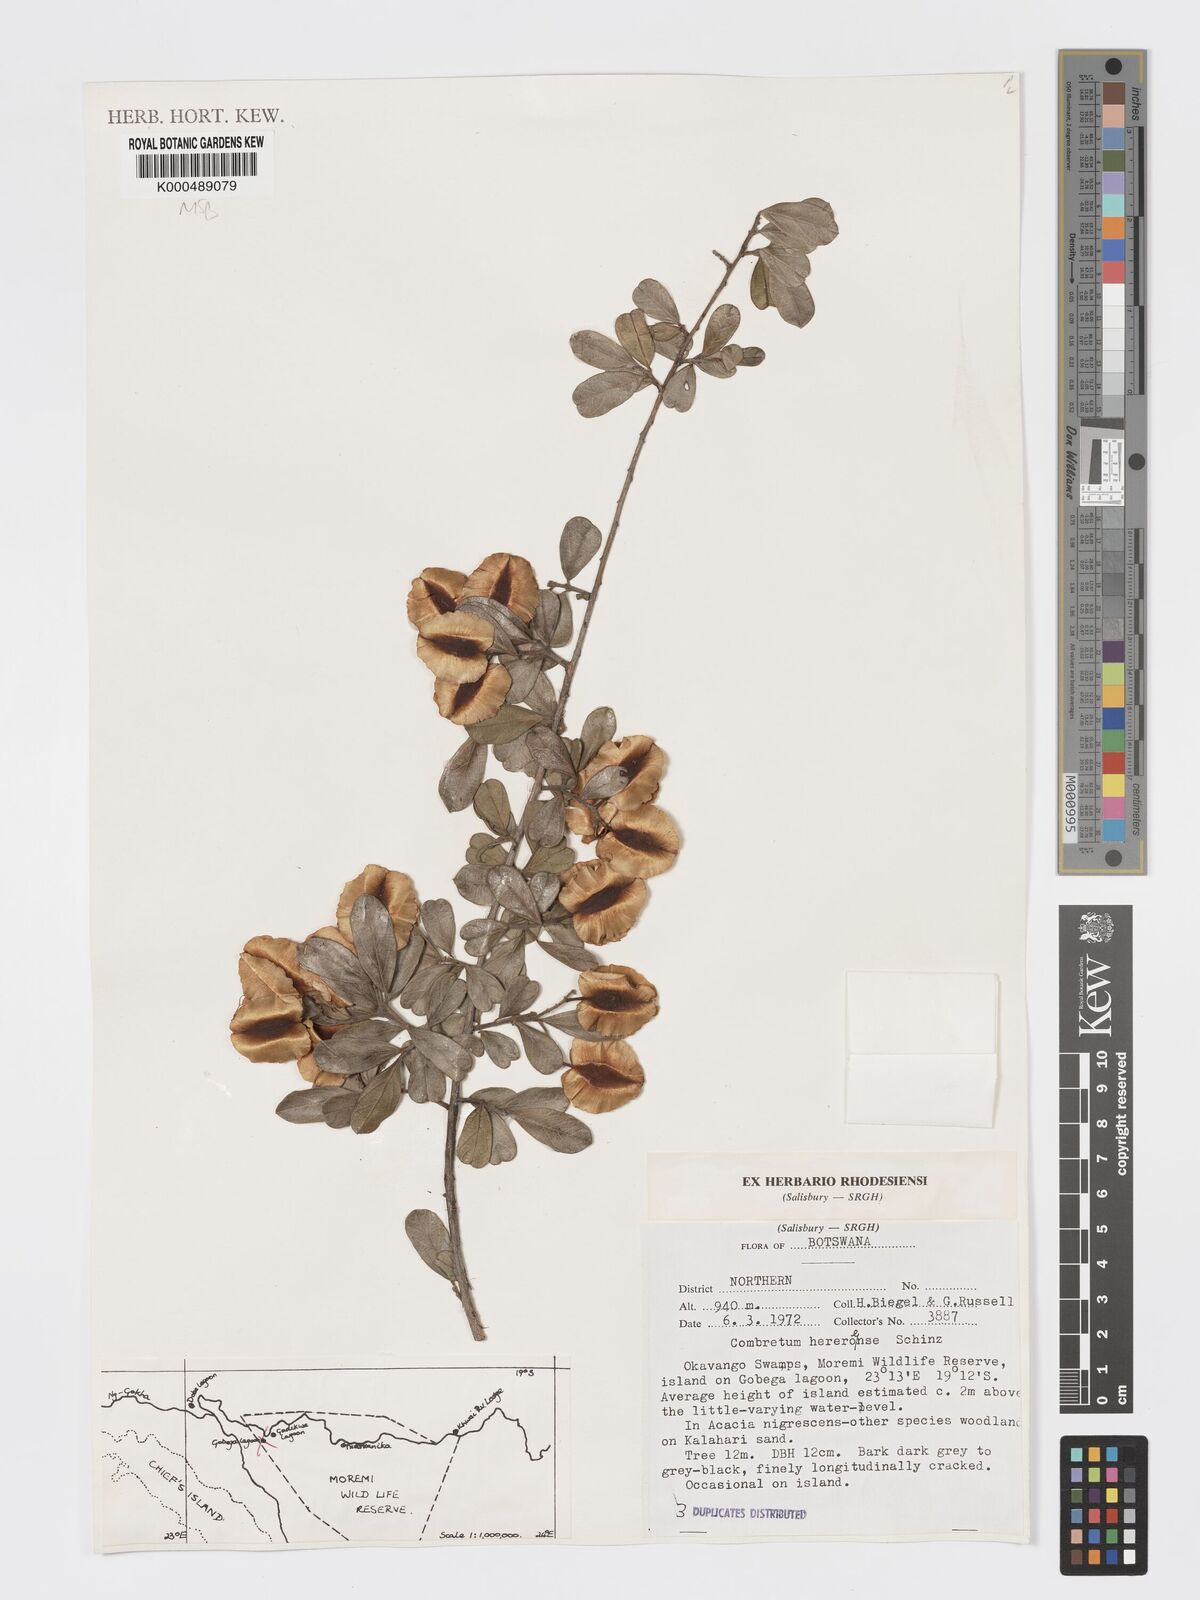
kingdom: Plantae
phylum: Tracheophyta
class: Magnoliopsida
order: Myrtales
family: Combretaceae
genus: Combretum
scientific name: Combretum hereroense
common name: Russet bushwillow
